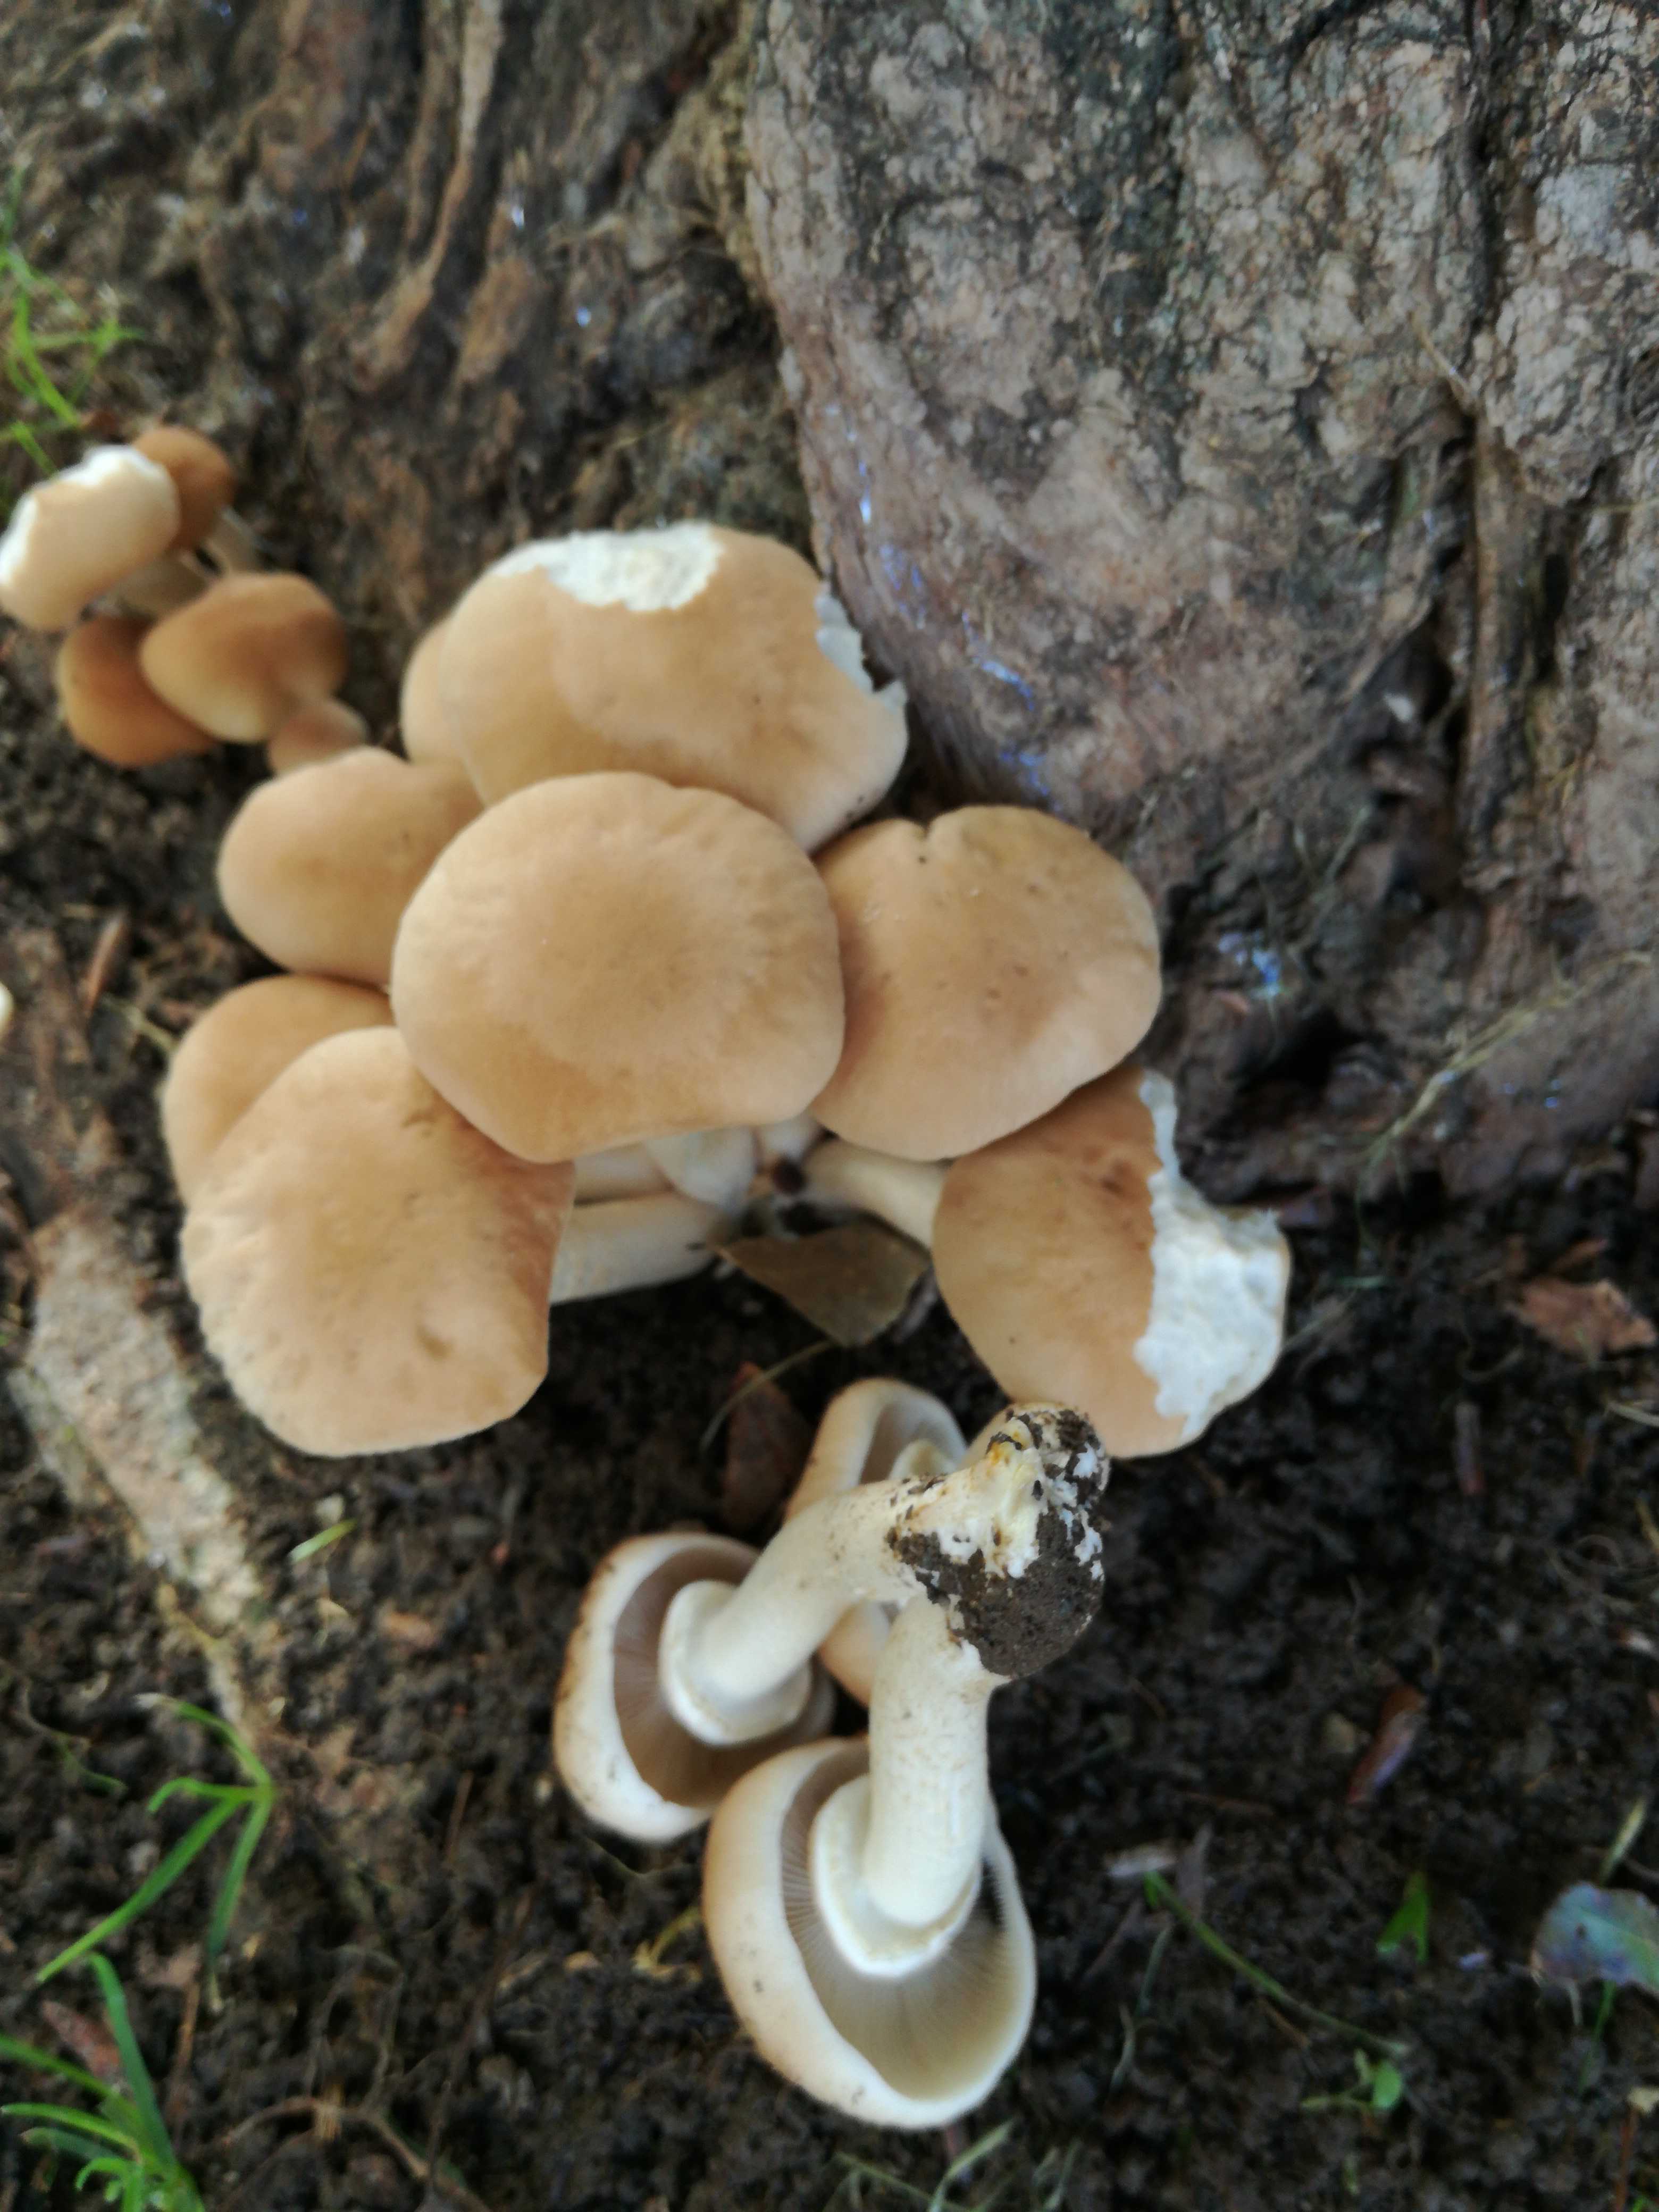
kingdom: Fungi
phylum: Basidiomycota
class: Agaricomycetes
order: Agaricales
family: Tubariaceae
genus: Cyclocybe
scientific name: Cyclocybe cylindracea
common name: poppel-agerhat
